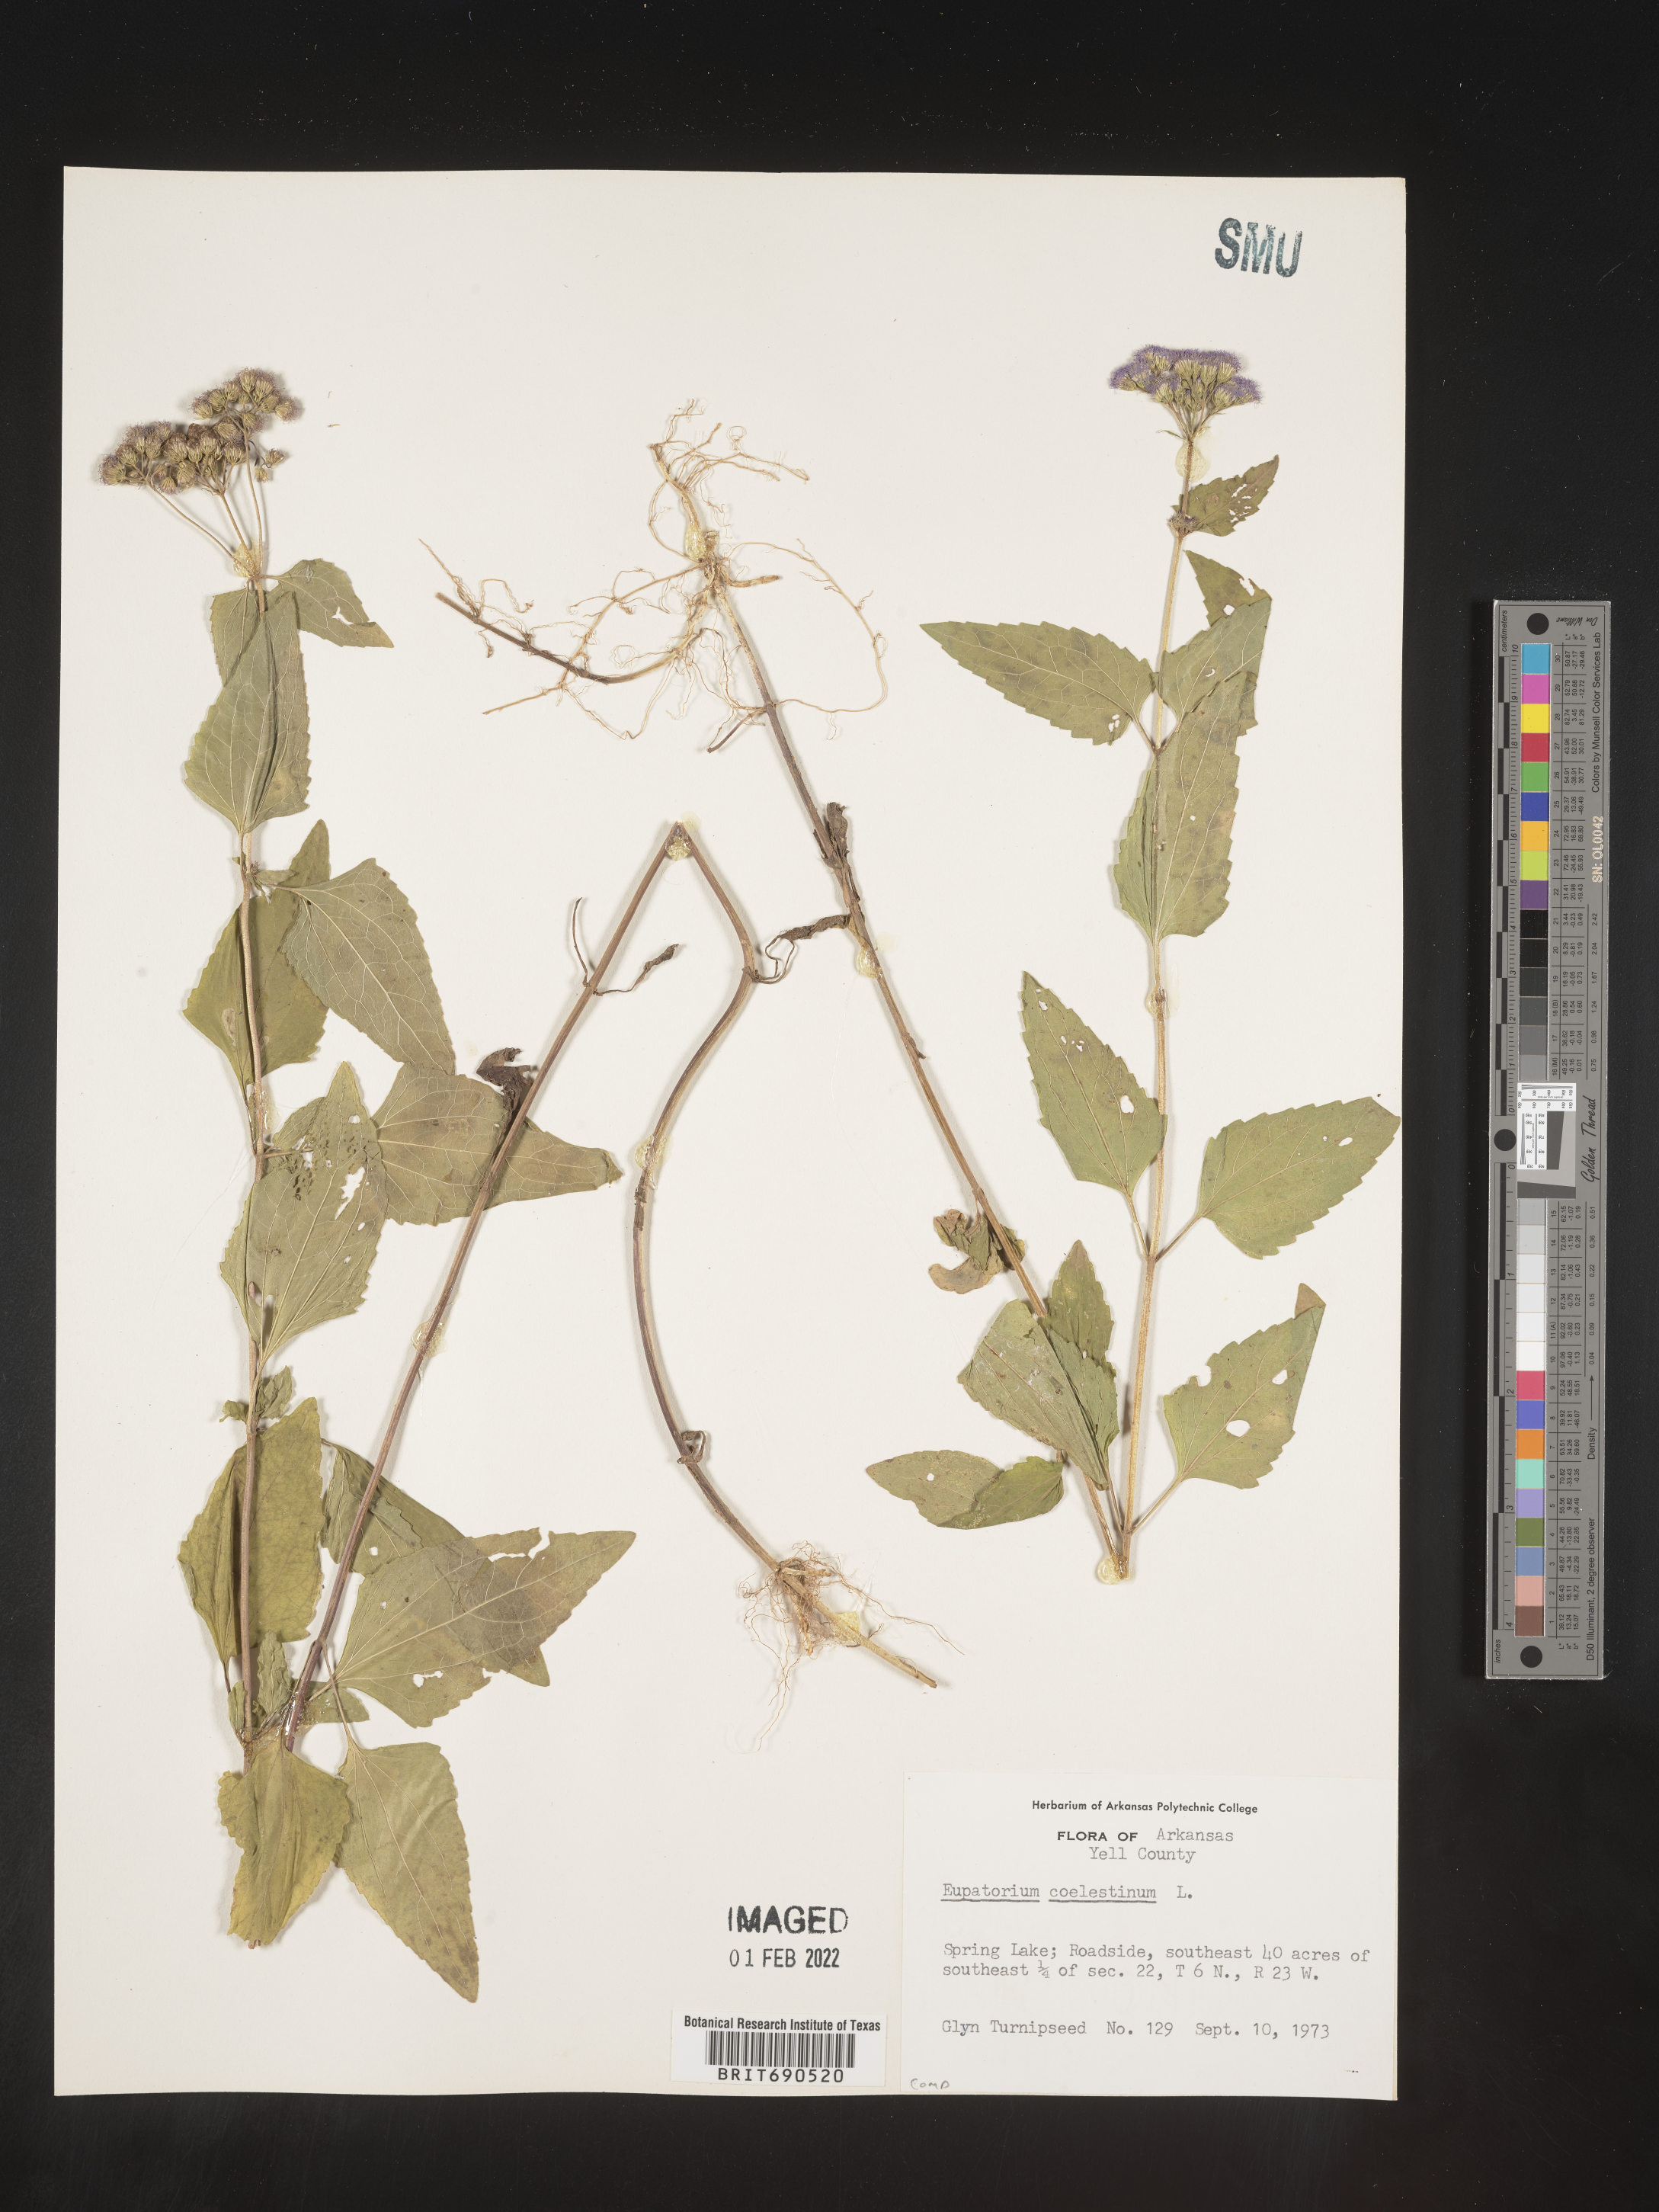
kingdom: Plantae
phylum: Tracheophyta
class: Magnoliopsida
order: Asterales
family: Asteraceae
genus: Conoclinium
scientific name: Conoclinium coelestinum
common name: Blue mistflower
